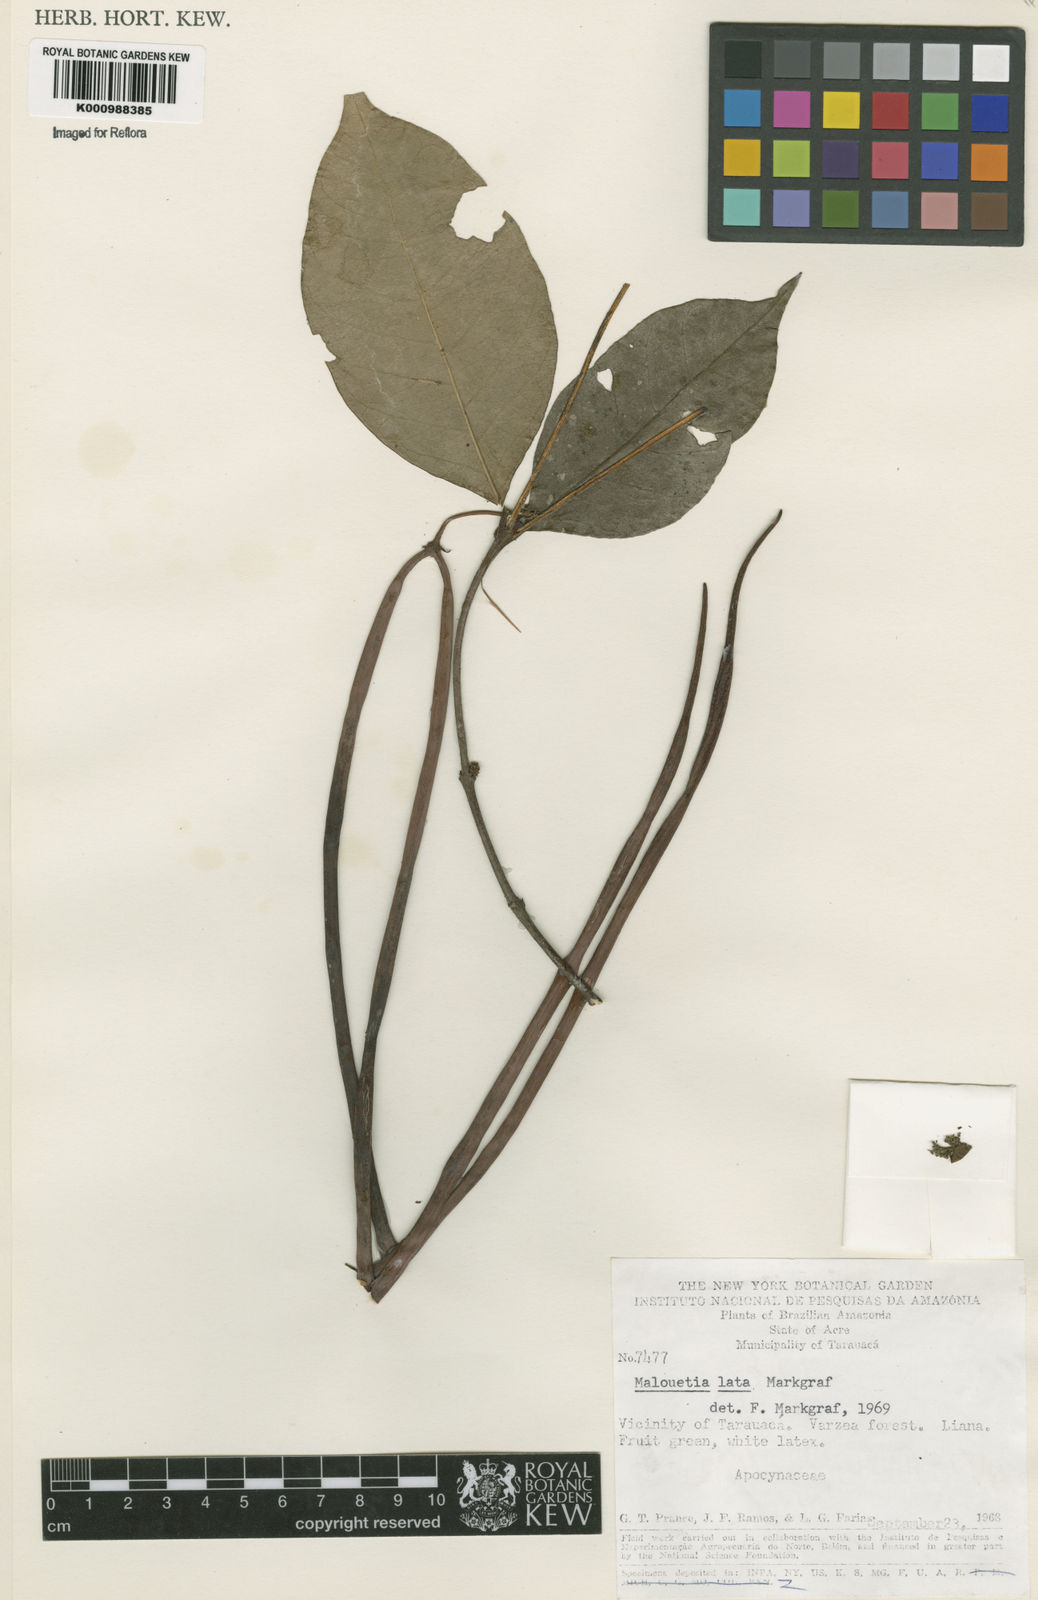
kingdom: Plantae
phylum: Tracheophyta
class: Magnoliopsida
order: Gentianales
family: Apocynaceae
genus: Malouetia
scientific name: Malouetia
